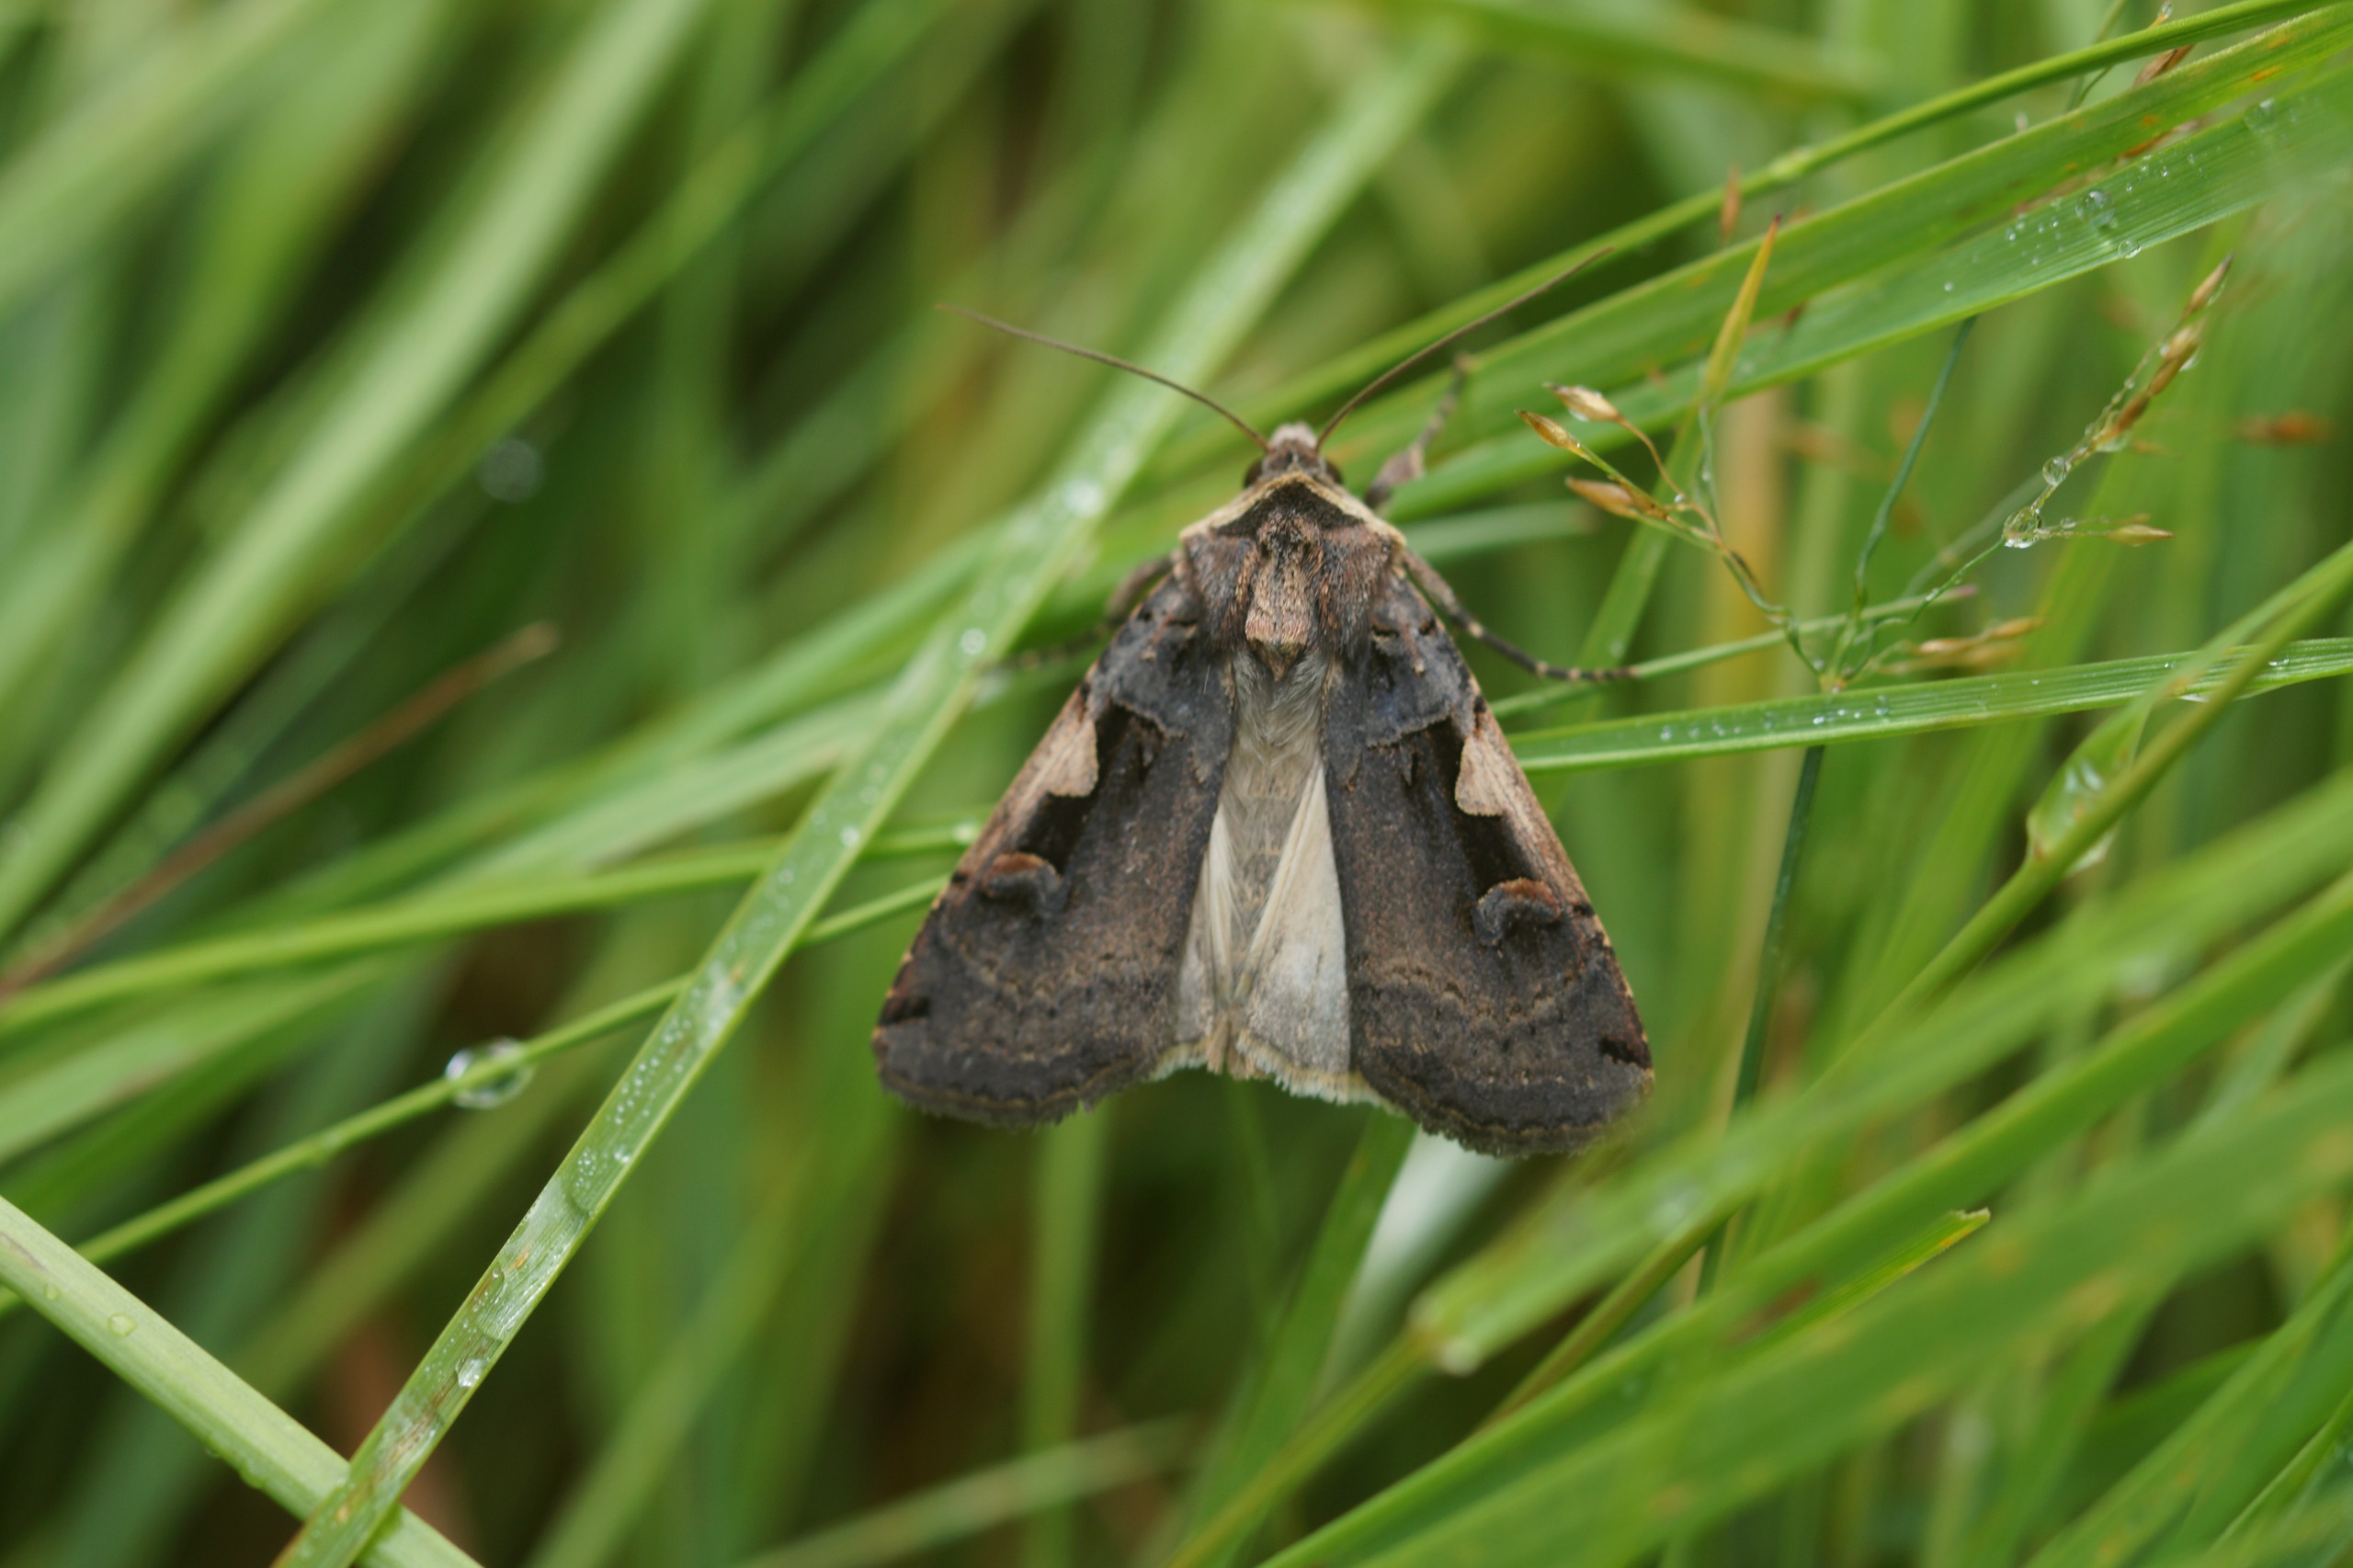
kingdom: Animalia
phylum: Arthropoda
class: Insecta
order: Lepidoptera
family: Noctuidae
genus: Xestia
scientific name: Xestia c-nigrum
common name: Det sorte c
